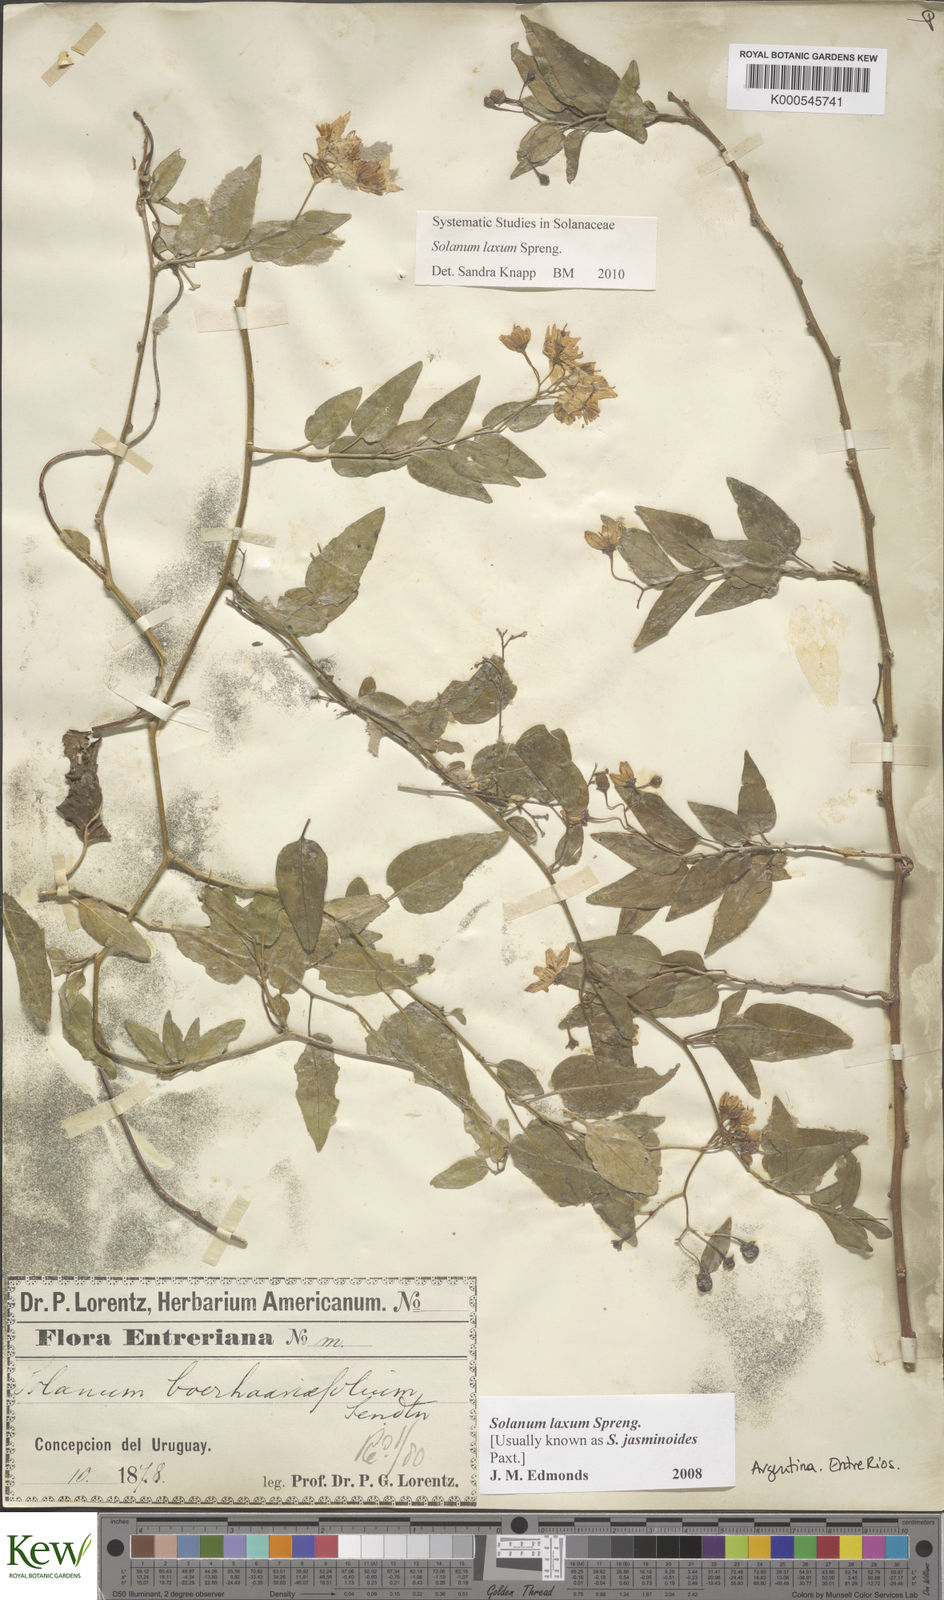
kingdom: Plantae
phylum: Tracheophyta
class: Magnoliopsida
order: Solanales
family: Solanaceae
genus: Solanum
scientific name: Solanum laxum
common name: Nightshade
